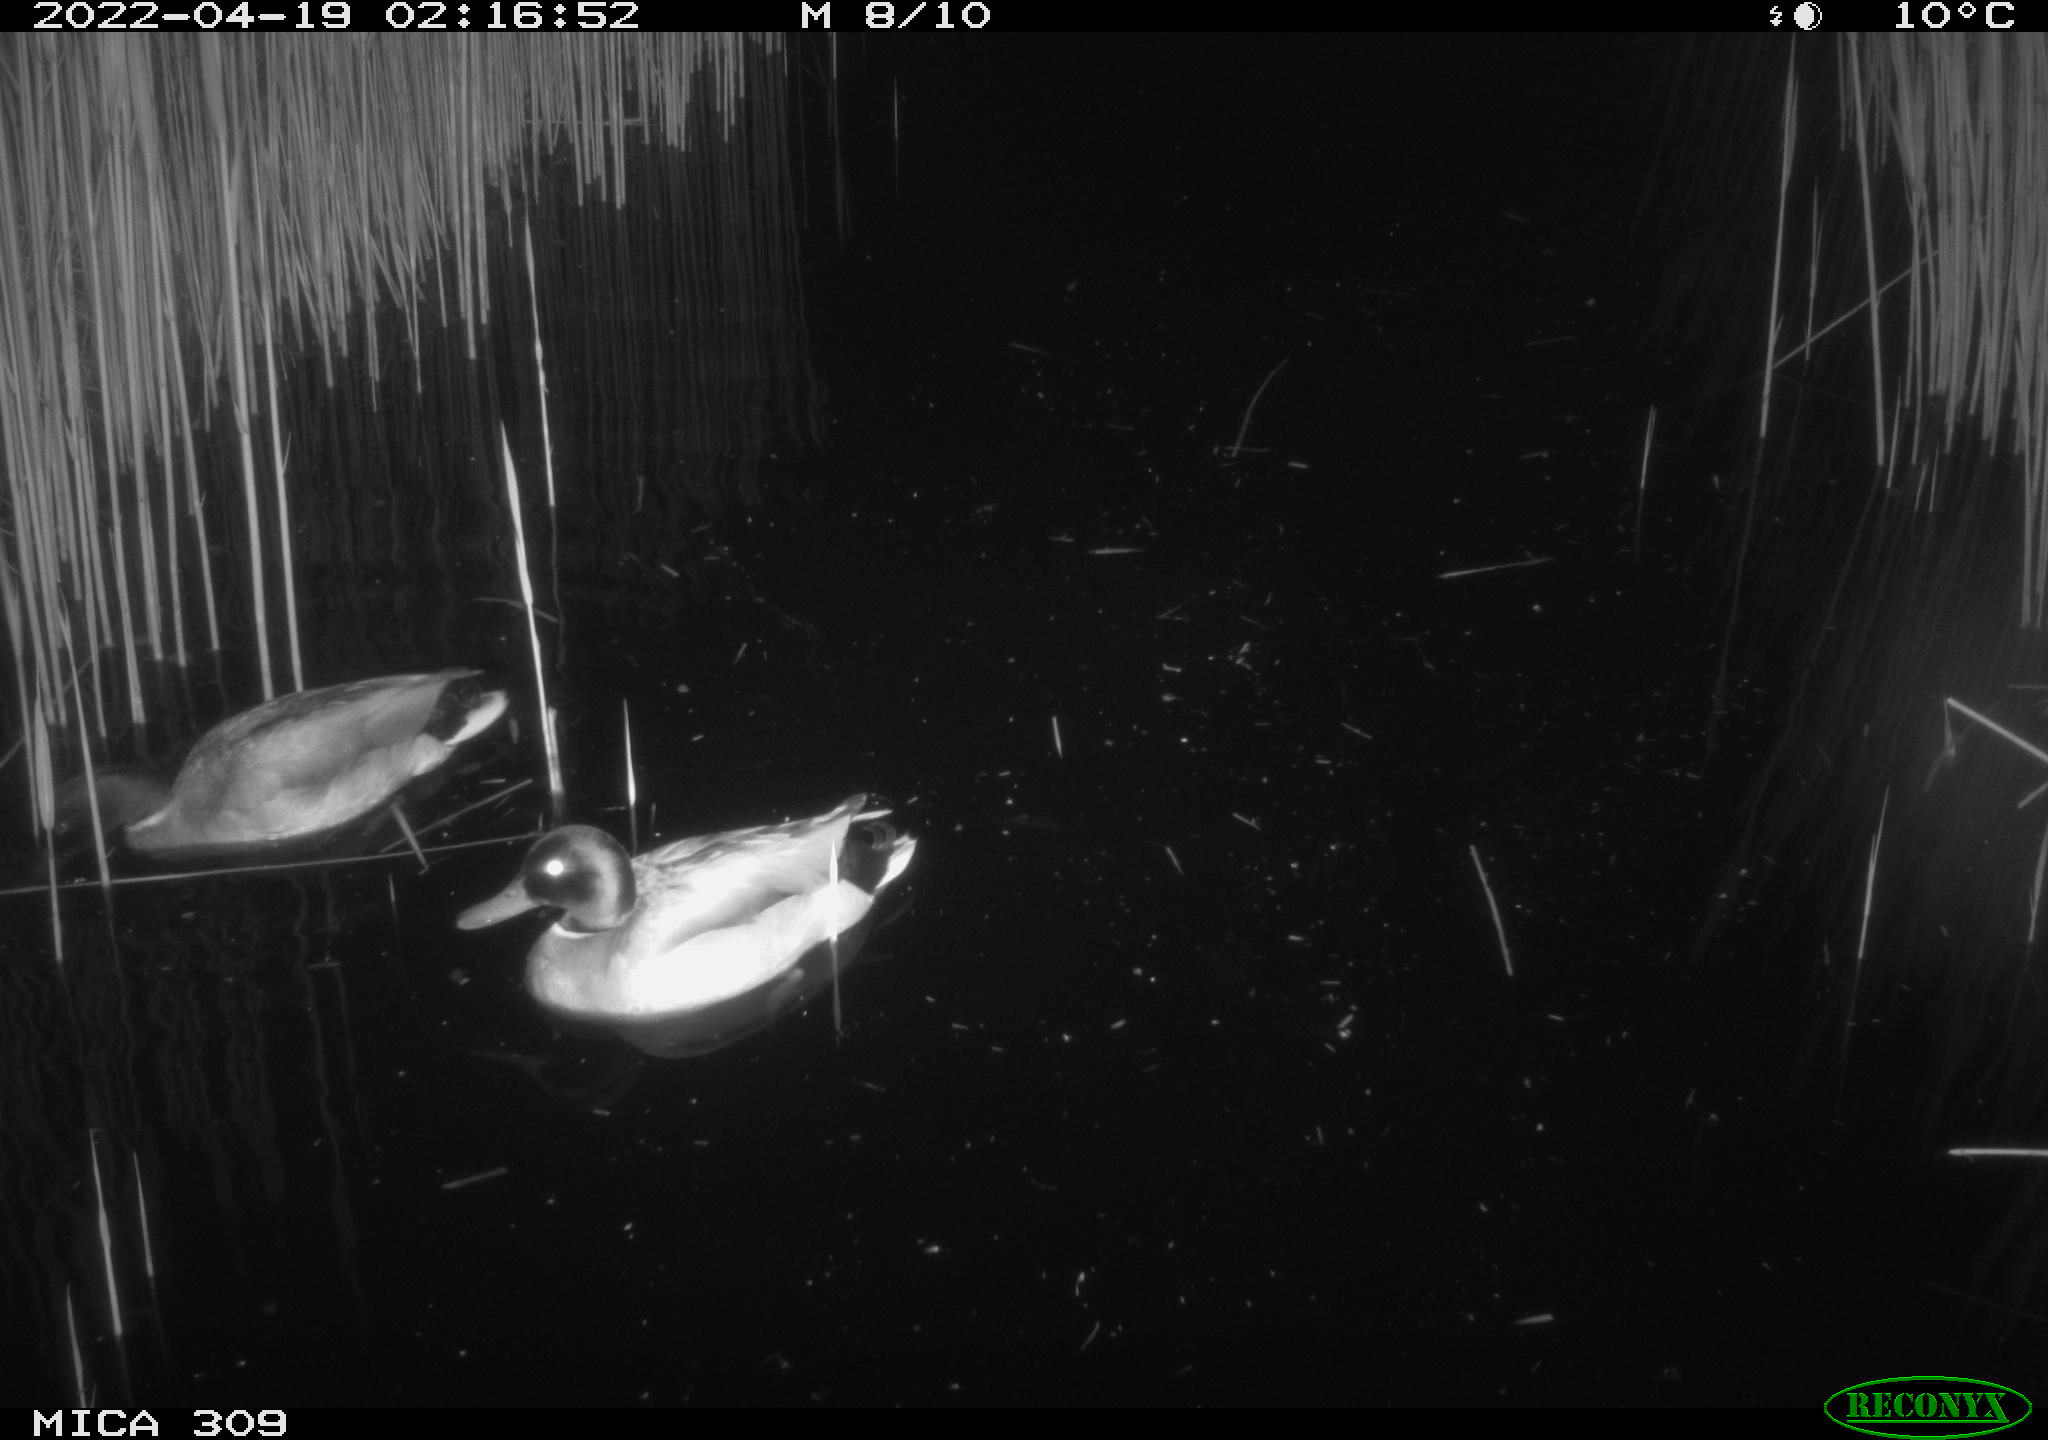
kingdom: Animalia
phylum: Chordata
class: Aves
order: Gruiformes
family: Rallidae
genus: Gallinula
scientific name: Gallinula chloropus
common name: Common moorhen
